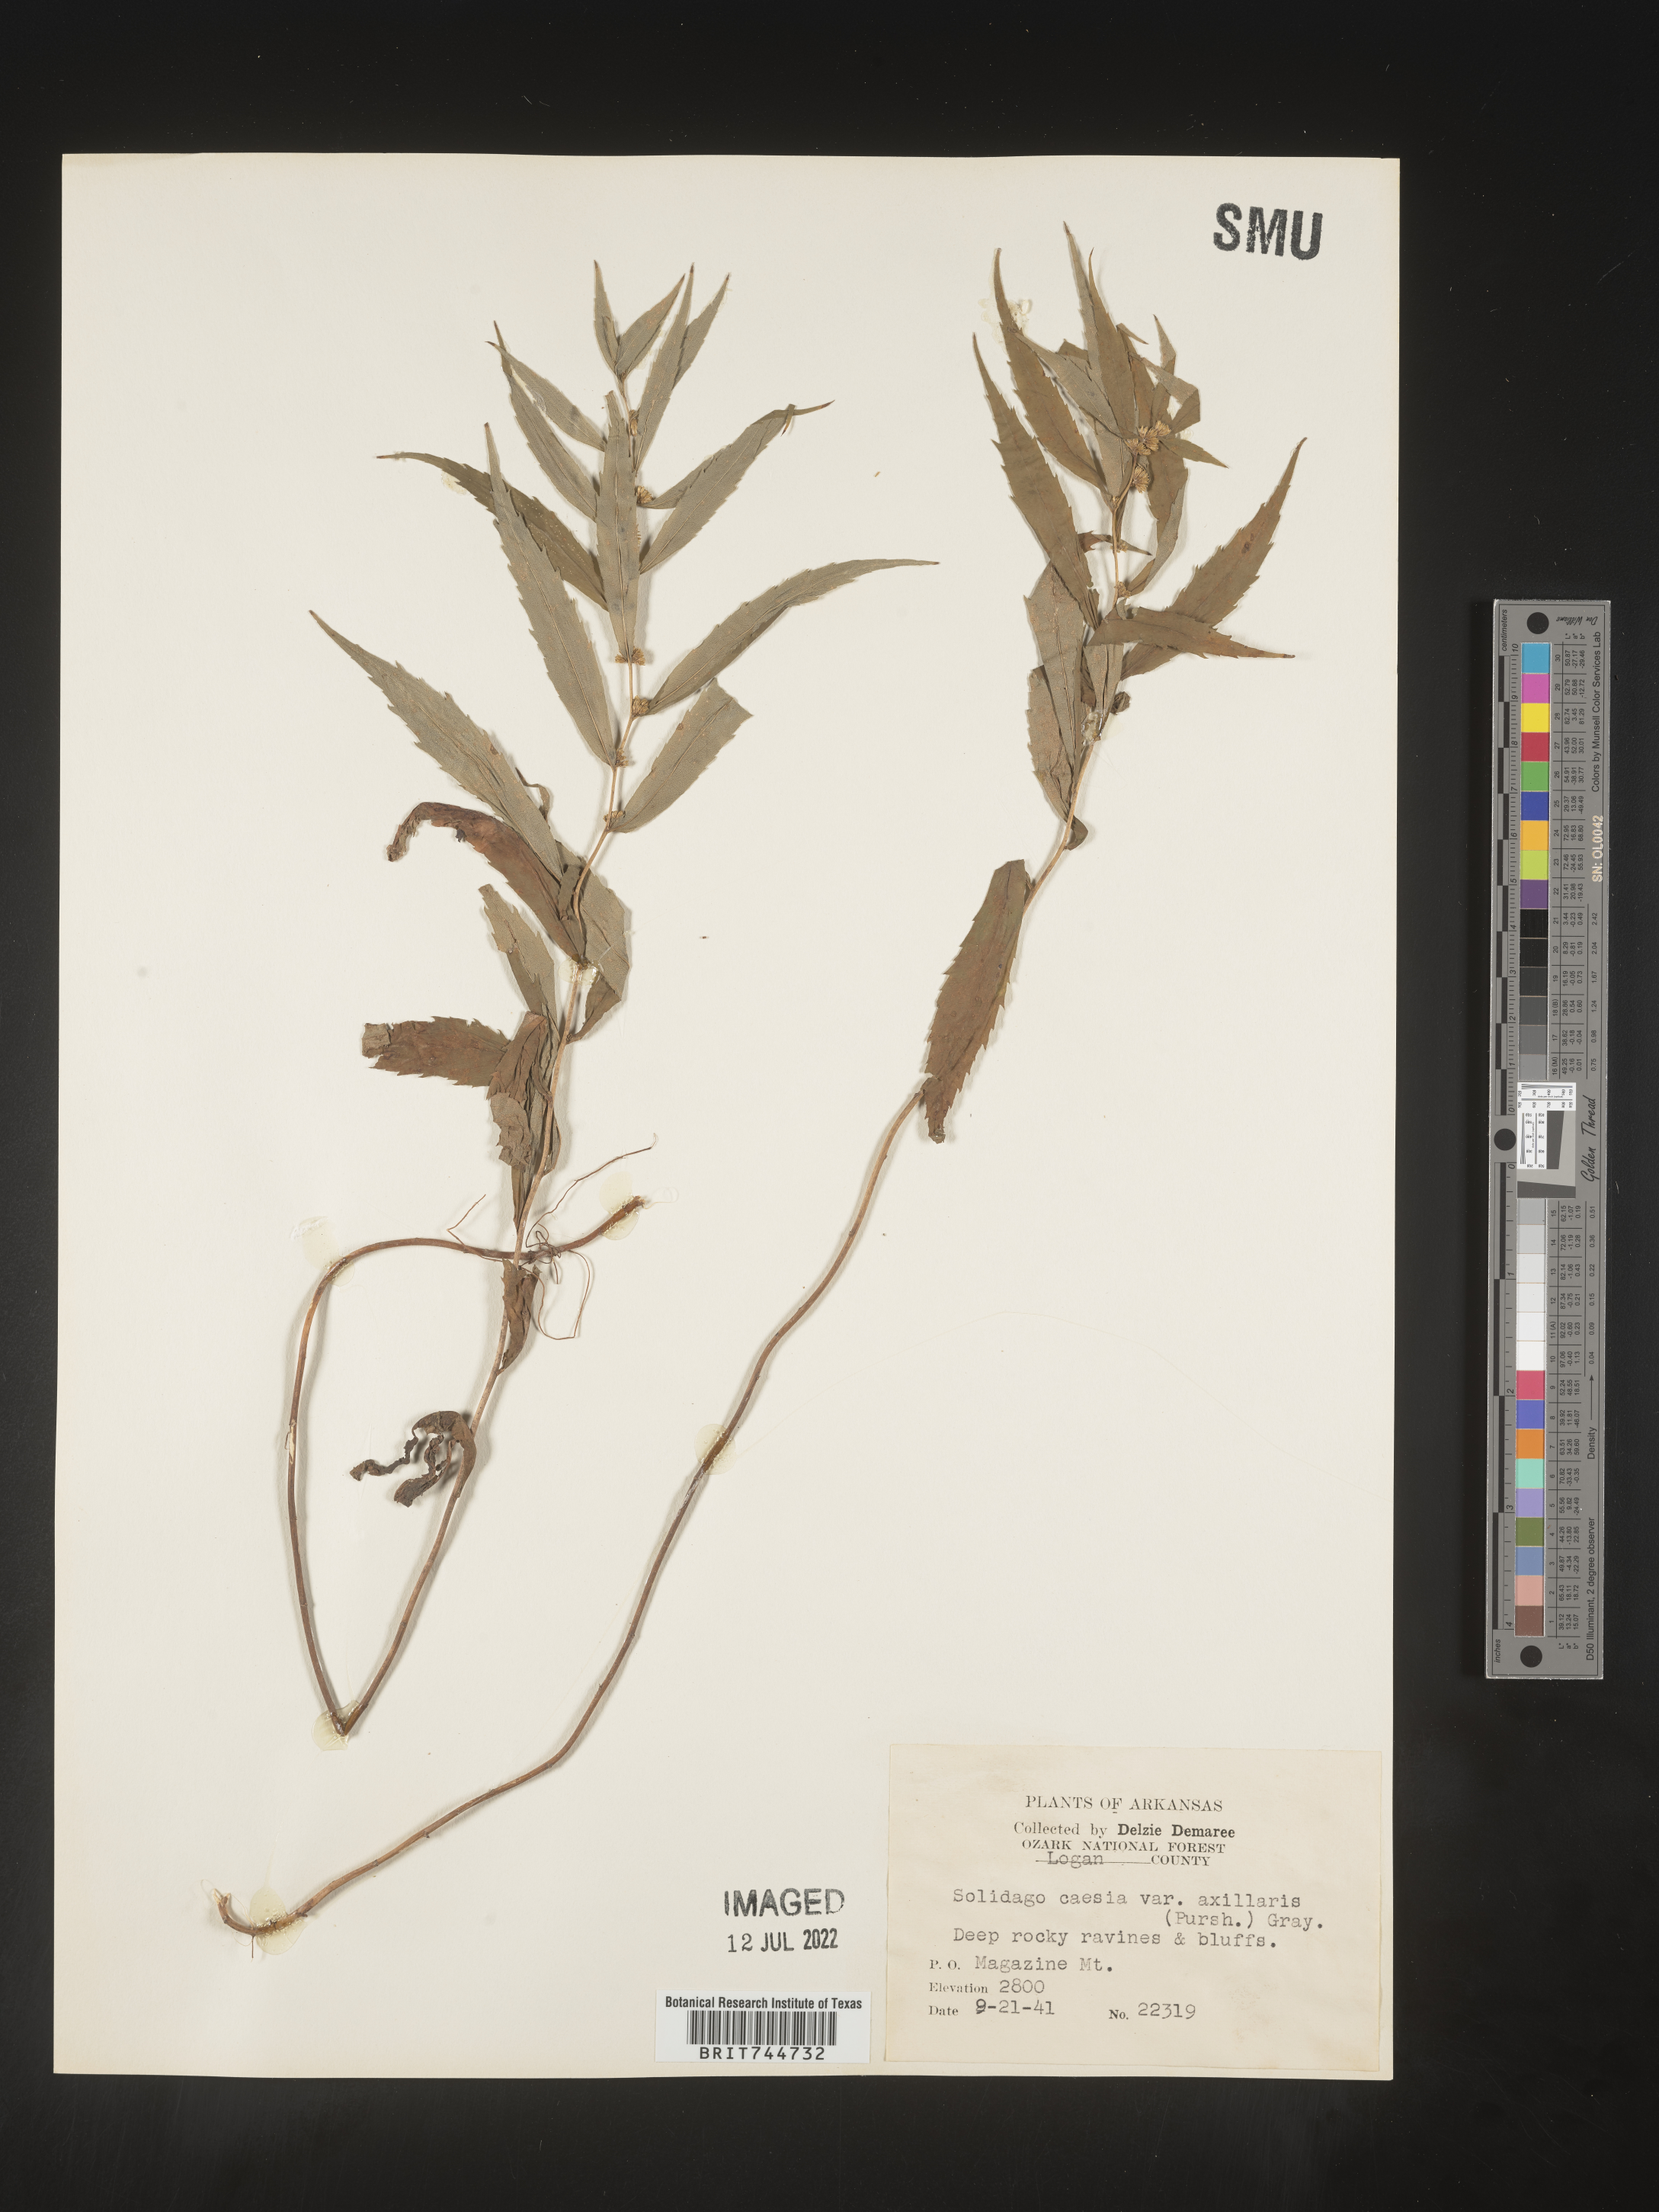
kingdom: Plantae
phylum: Tracheophyta
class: Magnoliopsida
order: Asterales
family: Asteraceae
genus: Solidago
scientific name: Solidago caesia
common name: Woodland goldenrod
